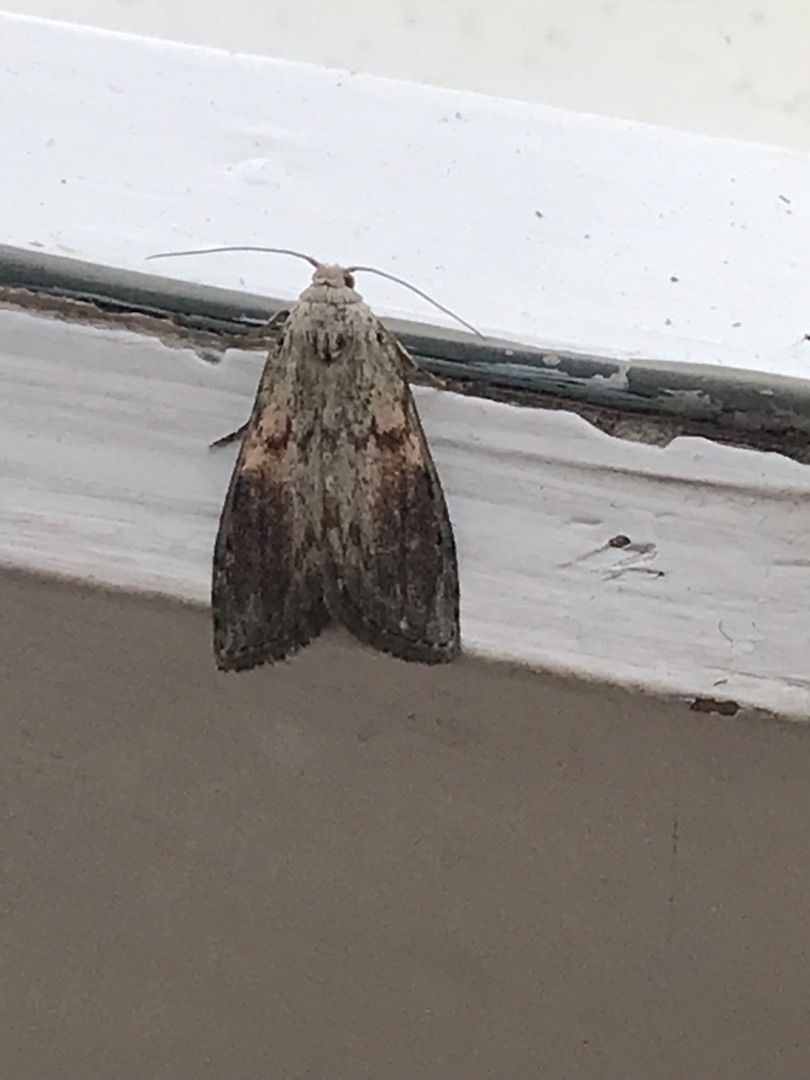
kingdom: Animalia
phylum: Arthropoda
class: Insecta
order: Lepidoptera
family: Pyralidae
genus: Aphomia
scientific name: Aphomia sociella
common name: Humlevoksmøl
